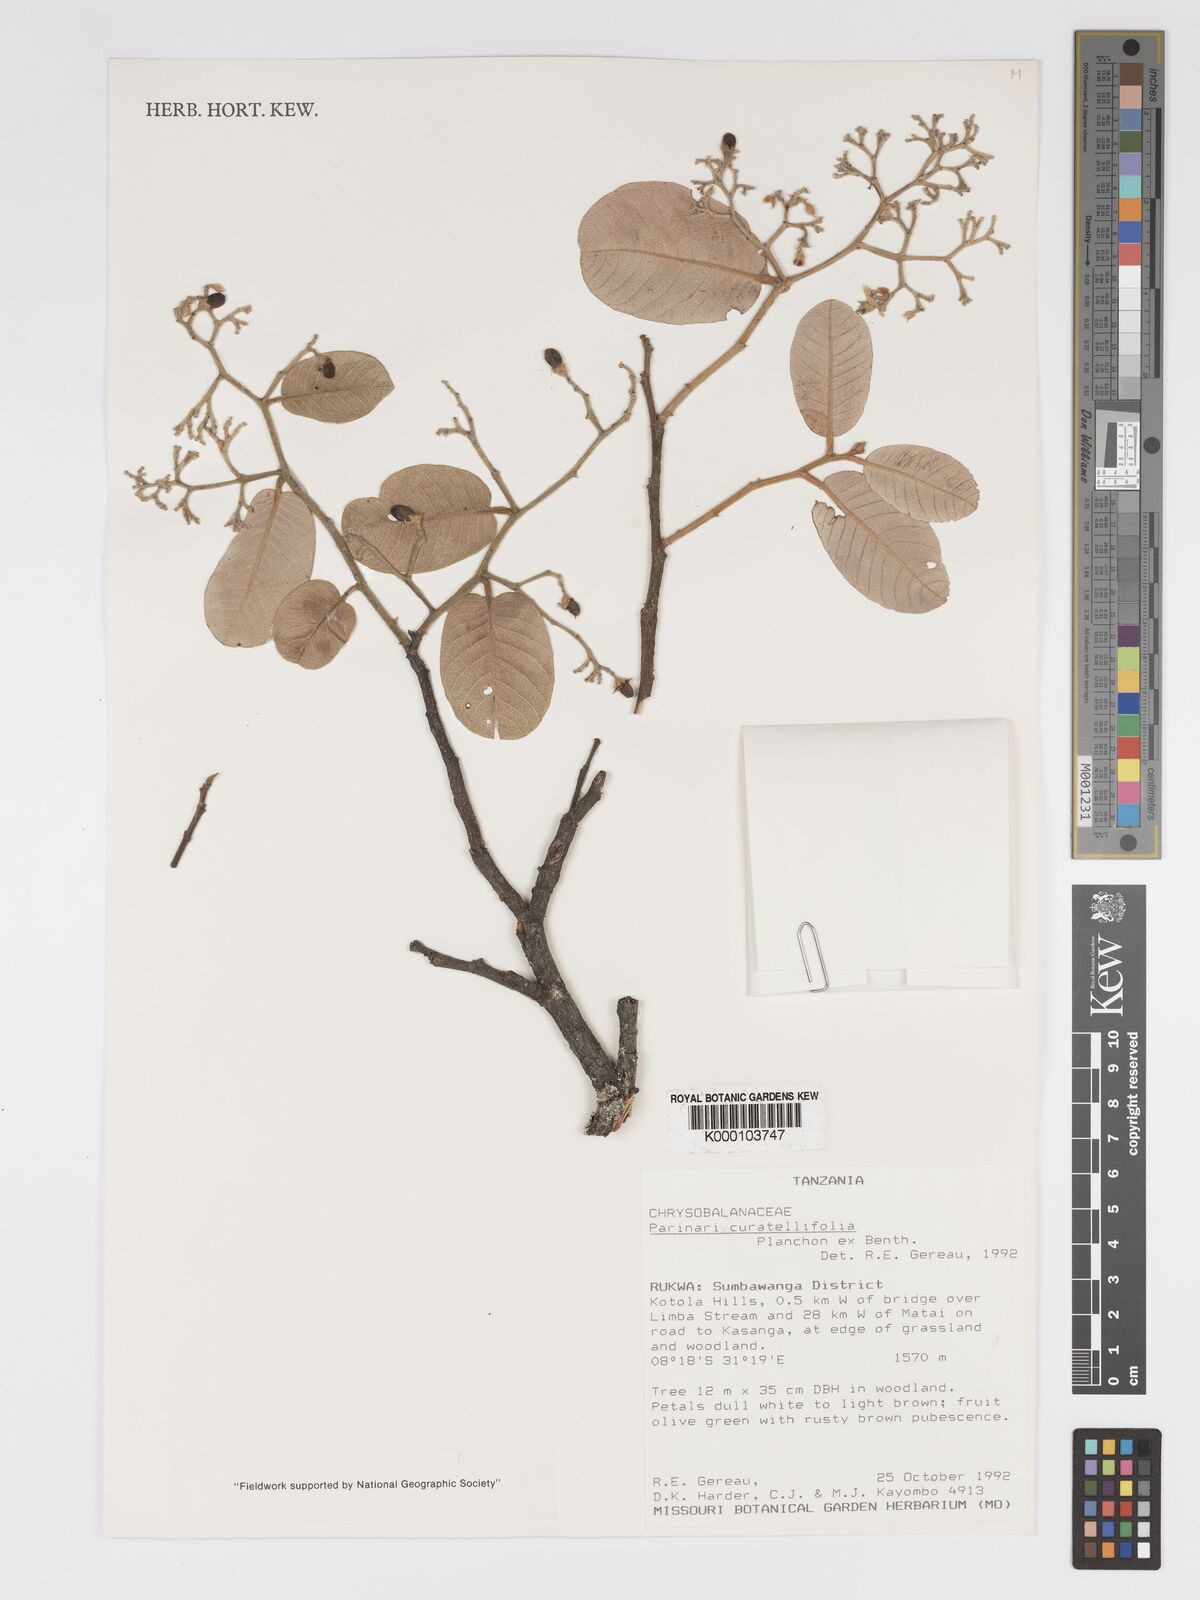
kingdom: Plantae
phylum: Tracheophyta
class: Magnoliopsida
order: Malpighiales
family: Chrysobalanaceae
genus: Parinari
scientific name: Parinari curatellifolia
